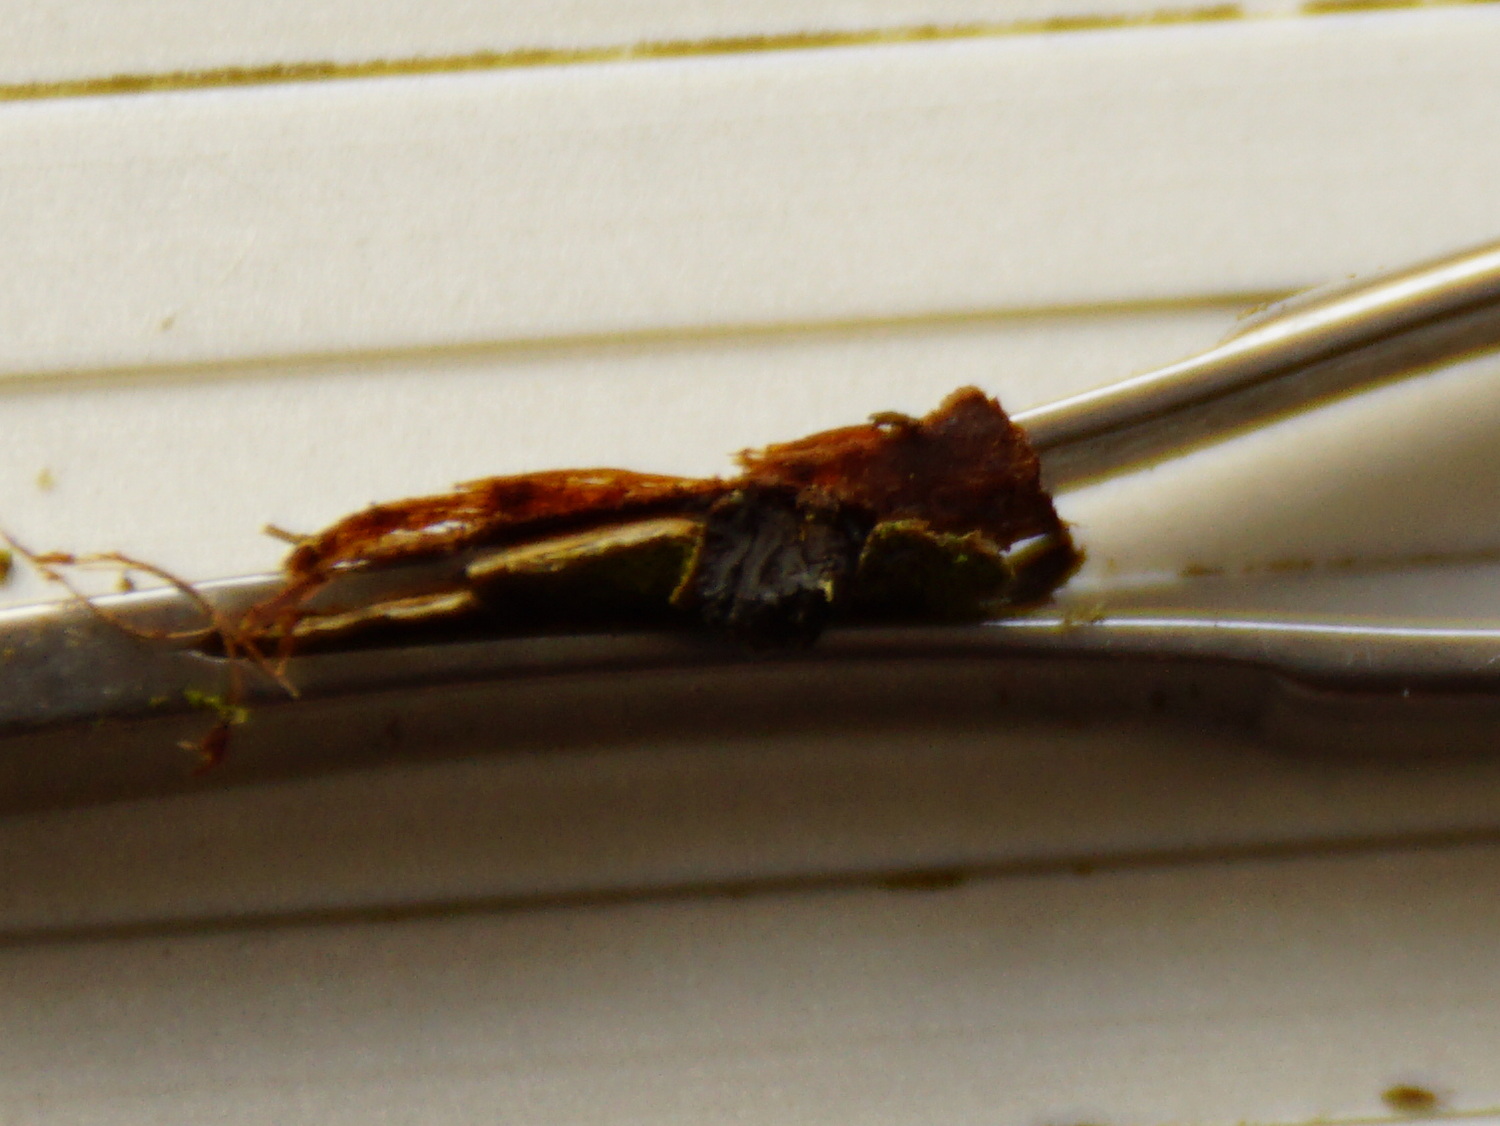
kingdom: Fungi
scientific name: Fungi
